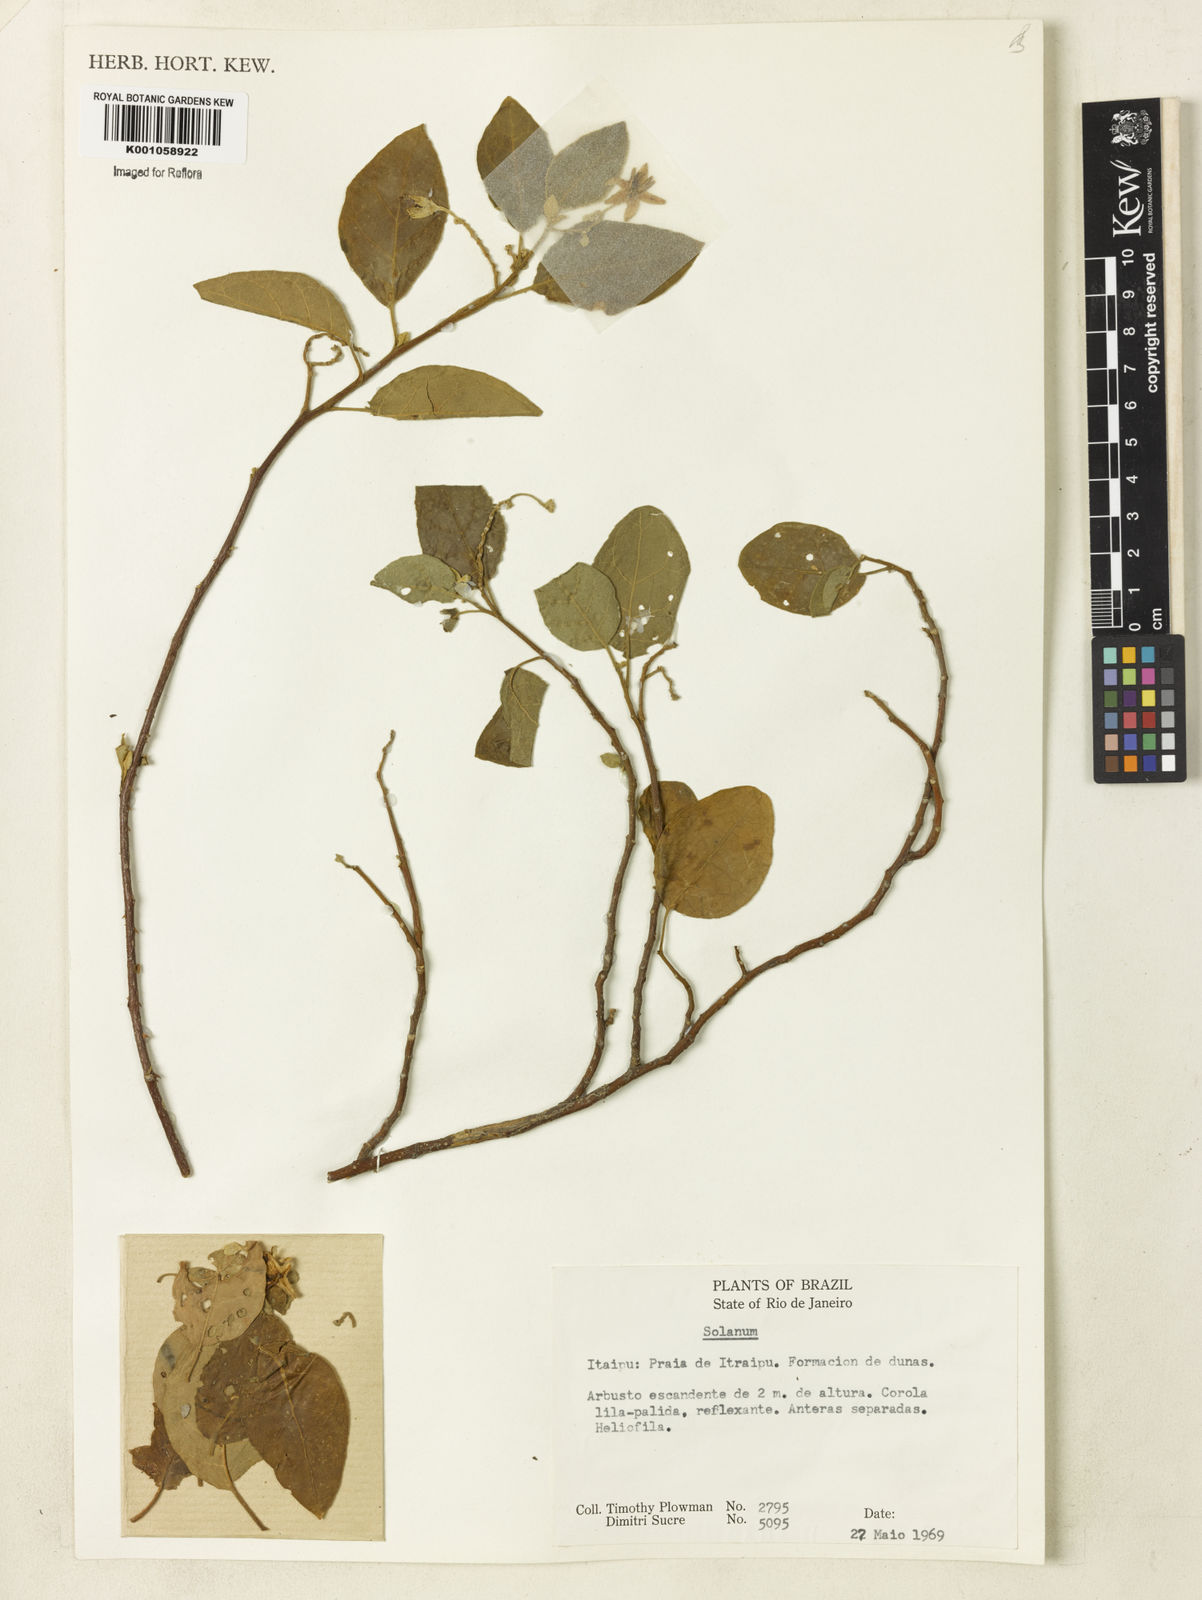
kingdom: Plantae
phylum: Tracheophyta
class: Magnoliopsida
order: Solanales
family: Solanaceae
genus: Solanum
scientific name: Solanum subinerme
